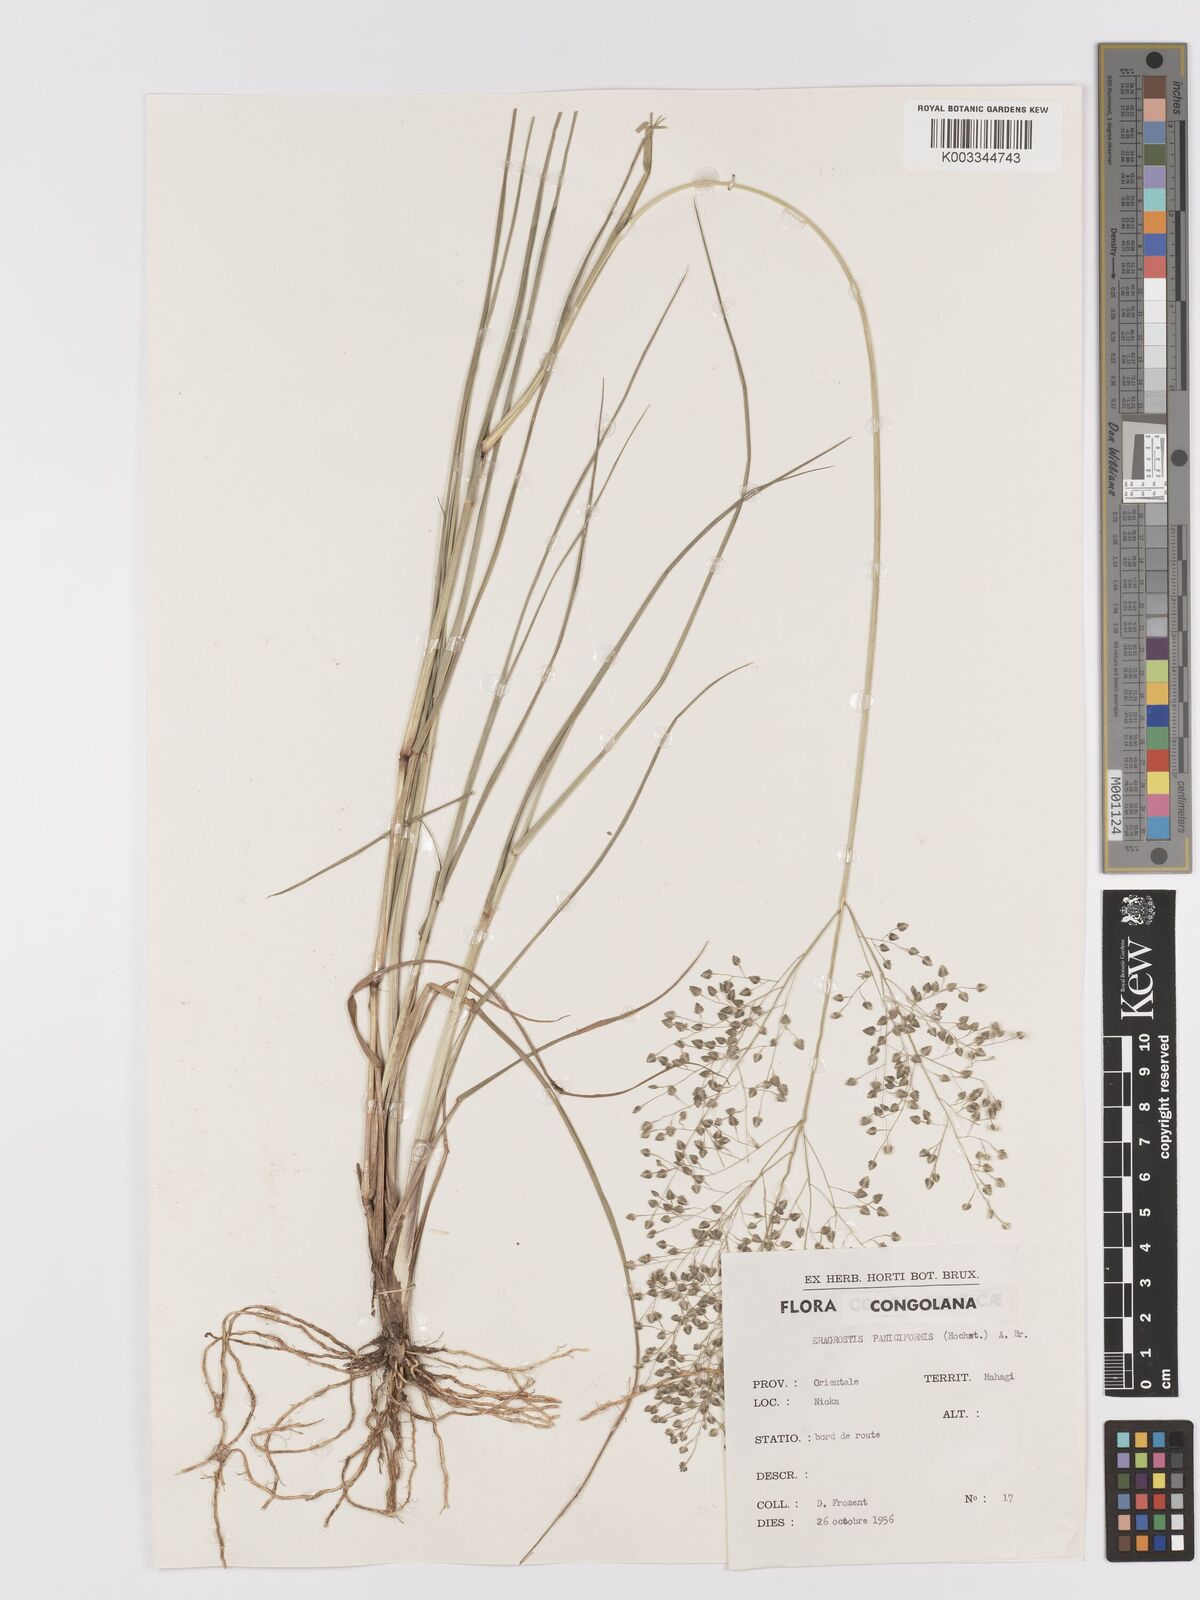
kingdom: Plantae
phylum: Tracheophyta
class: Liliopsida
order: Poales
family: Poaceae
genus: Eragrostis
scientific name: Eragrostis exasperata
